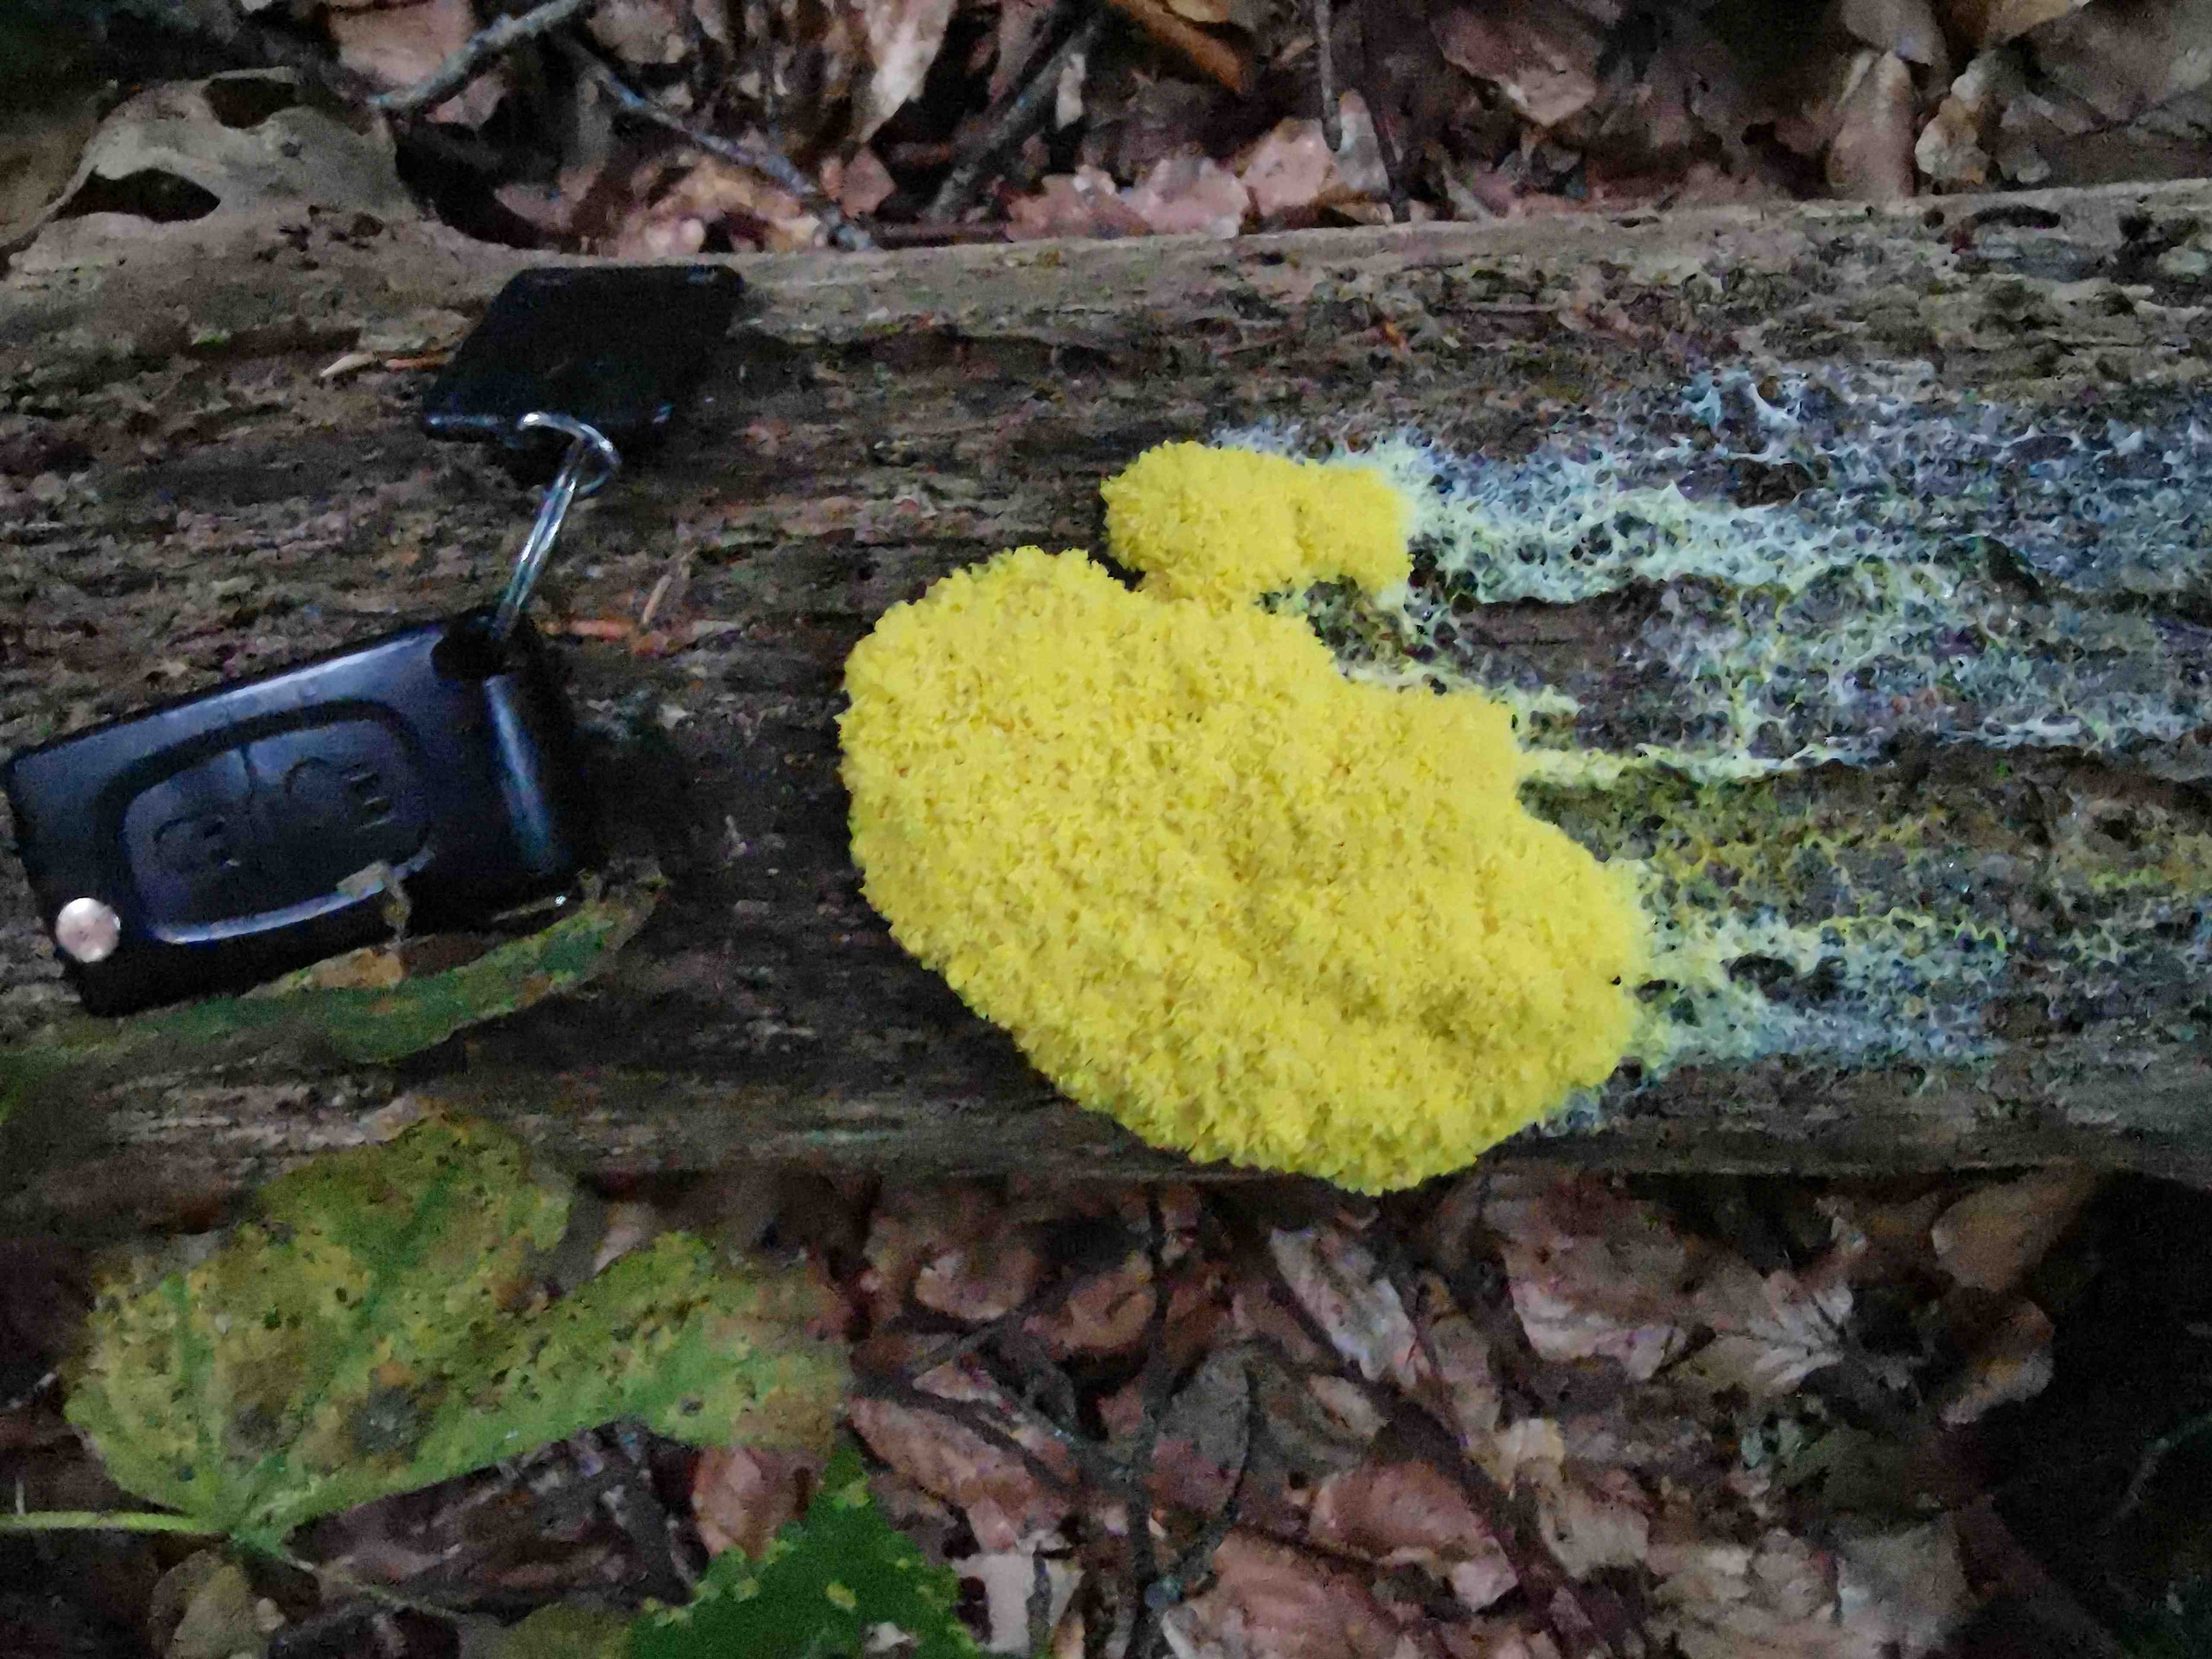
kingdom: Protozoa
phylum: Mycetozoa
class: Myxomycetes
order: Physarales
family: Physaraceae
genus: Fuligo
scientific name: Fuligo septica
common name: gul troldsmør
